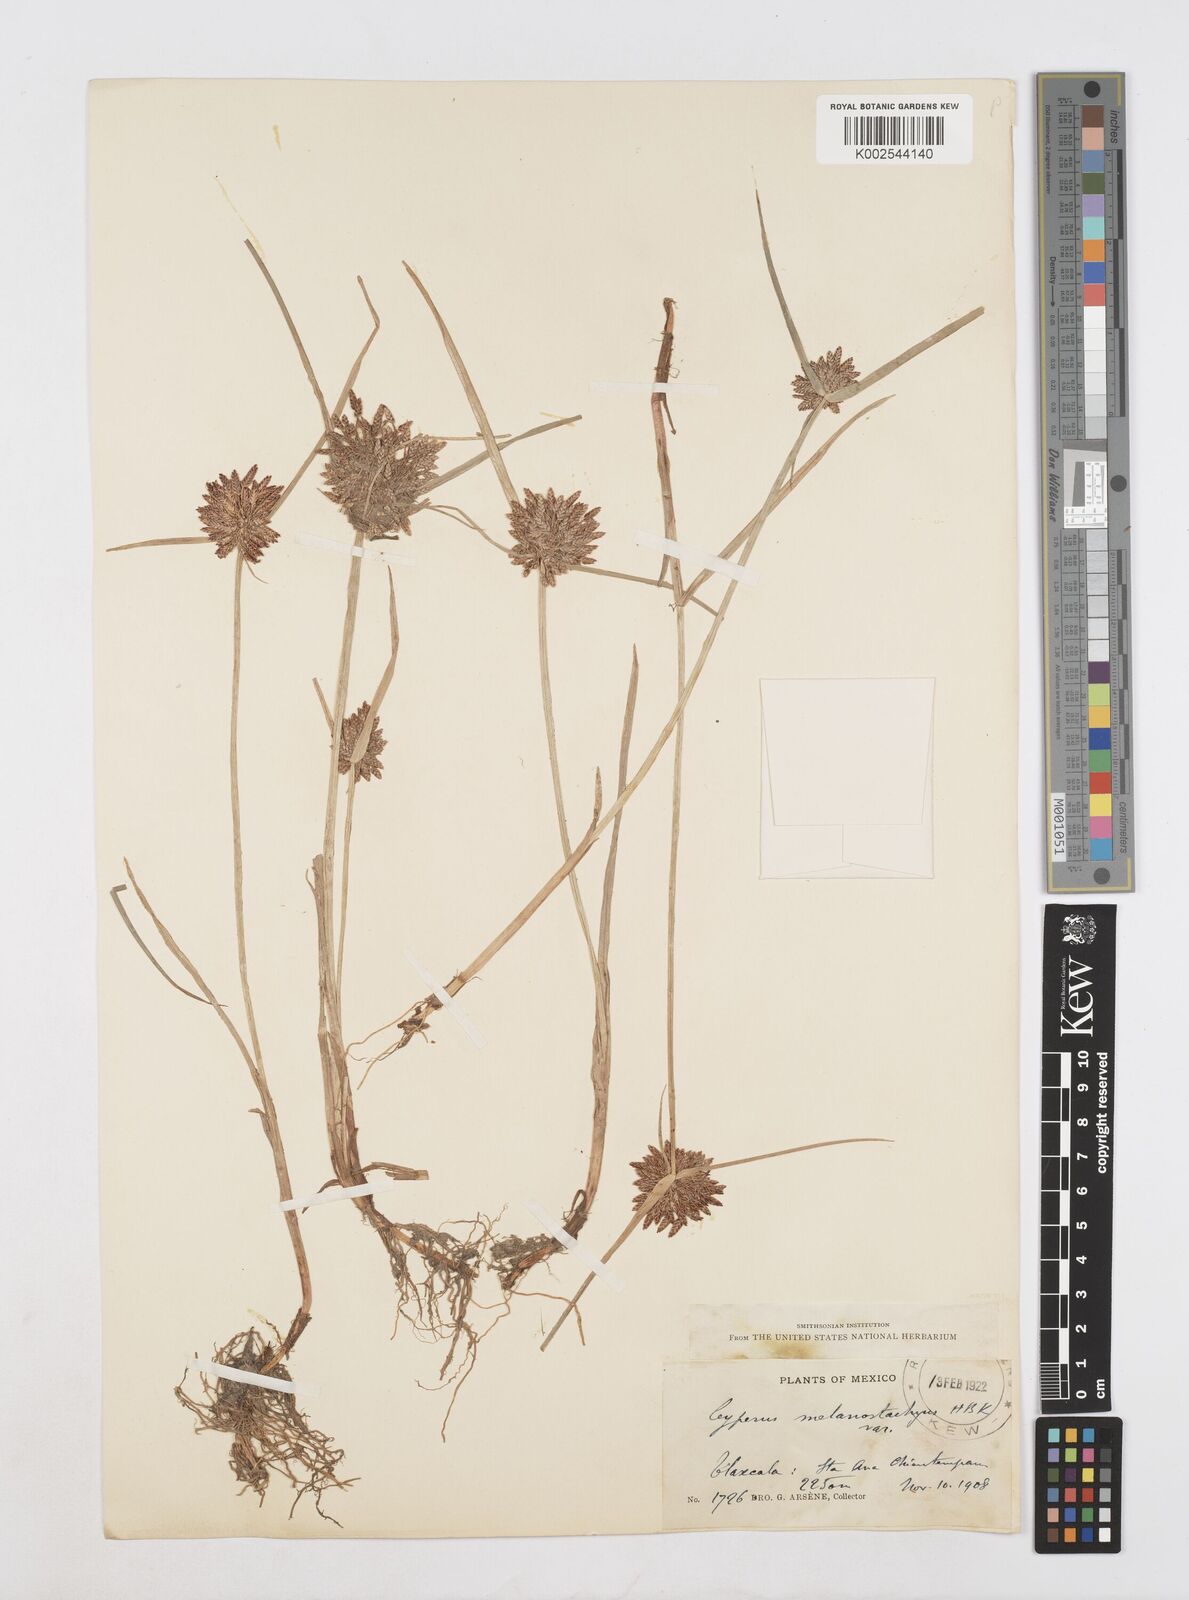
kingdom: Plantae
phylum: Tracheophyta
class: Liliopsida
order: Poales
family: Cyperaceae
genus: Cyperus
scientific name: Cyperus melanostachyus
